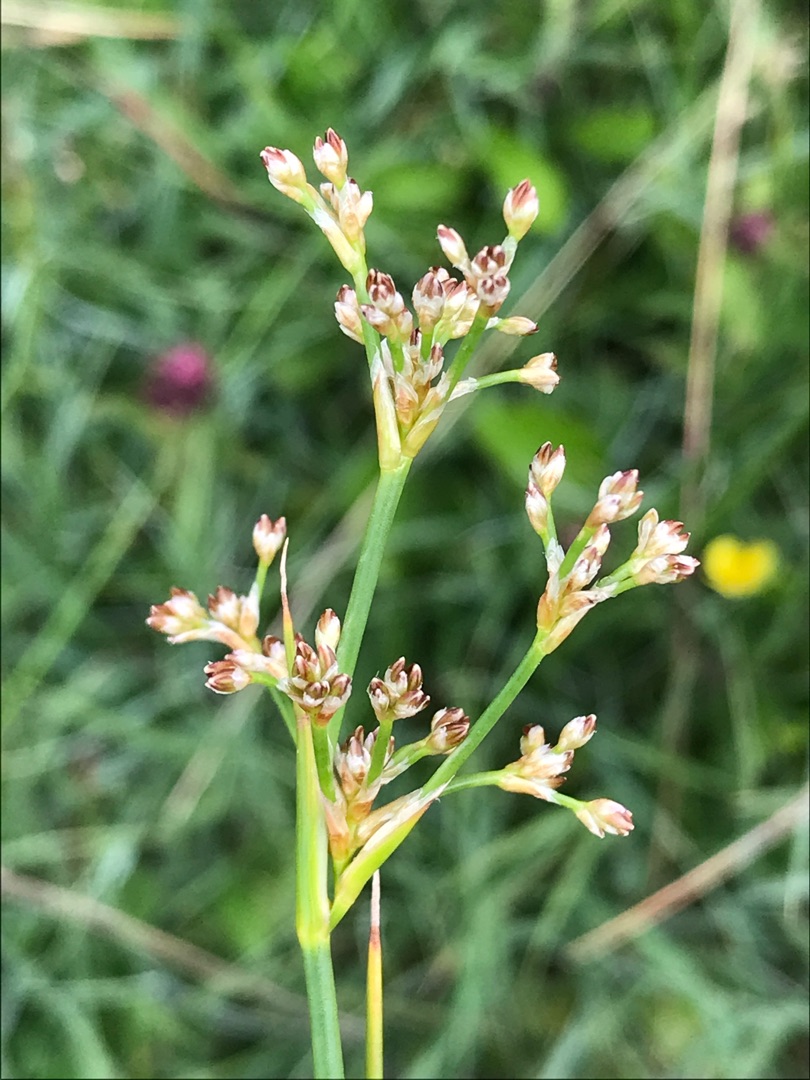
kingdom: Plantae
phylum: Tracheophyta
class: Liliopsida
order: Poales
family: Juncaceae
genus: Juncus
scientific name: Juncus subnodulosus
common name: Butblomstret siv
